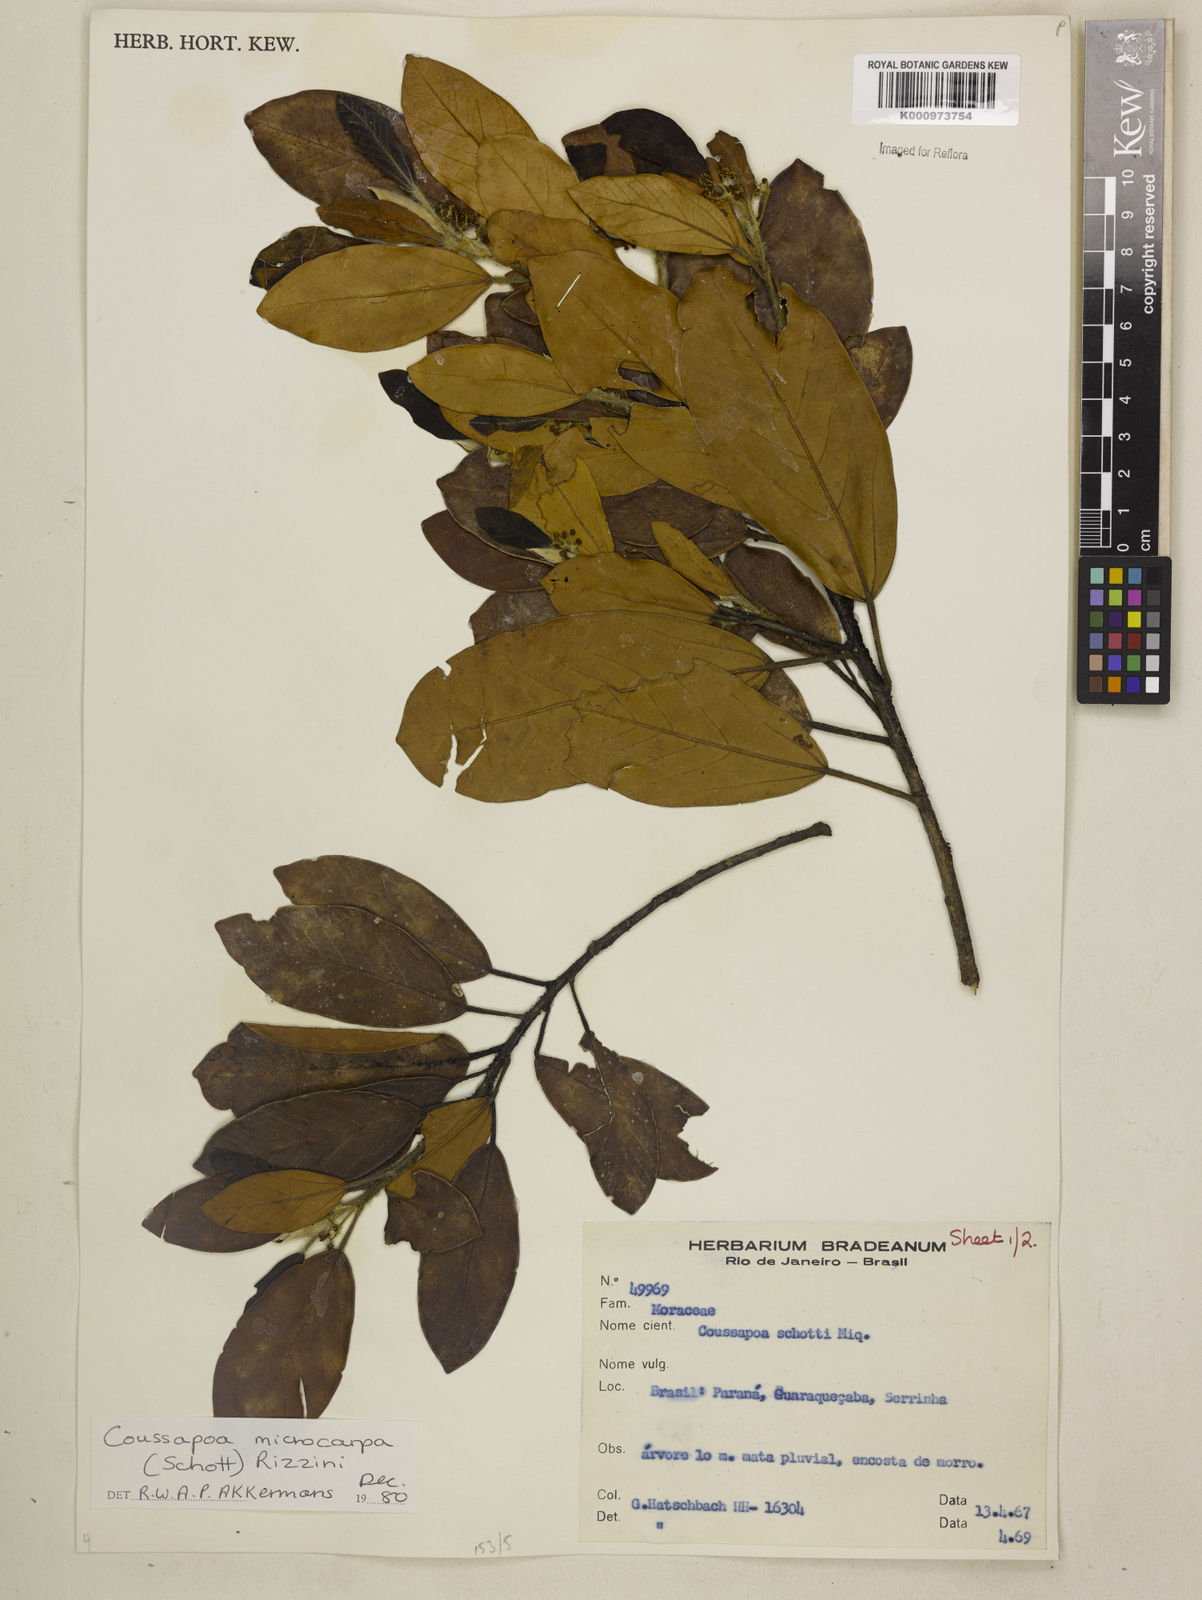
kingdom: Plantae
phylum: Tracheophyta
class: Magnoliopsida
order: Rosales
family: Urticaceae
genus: Coussapoa
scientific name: Coussapoa microcarpa
